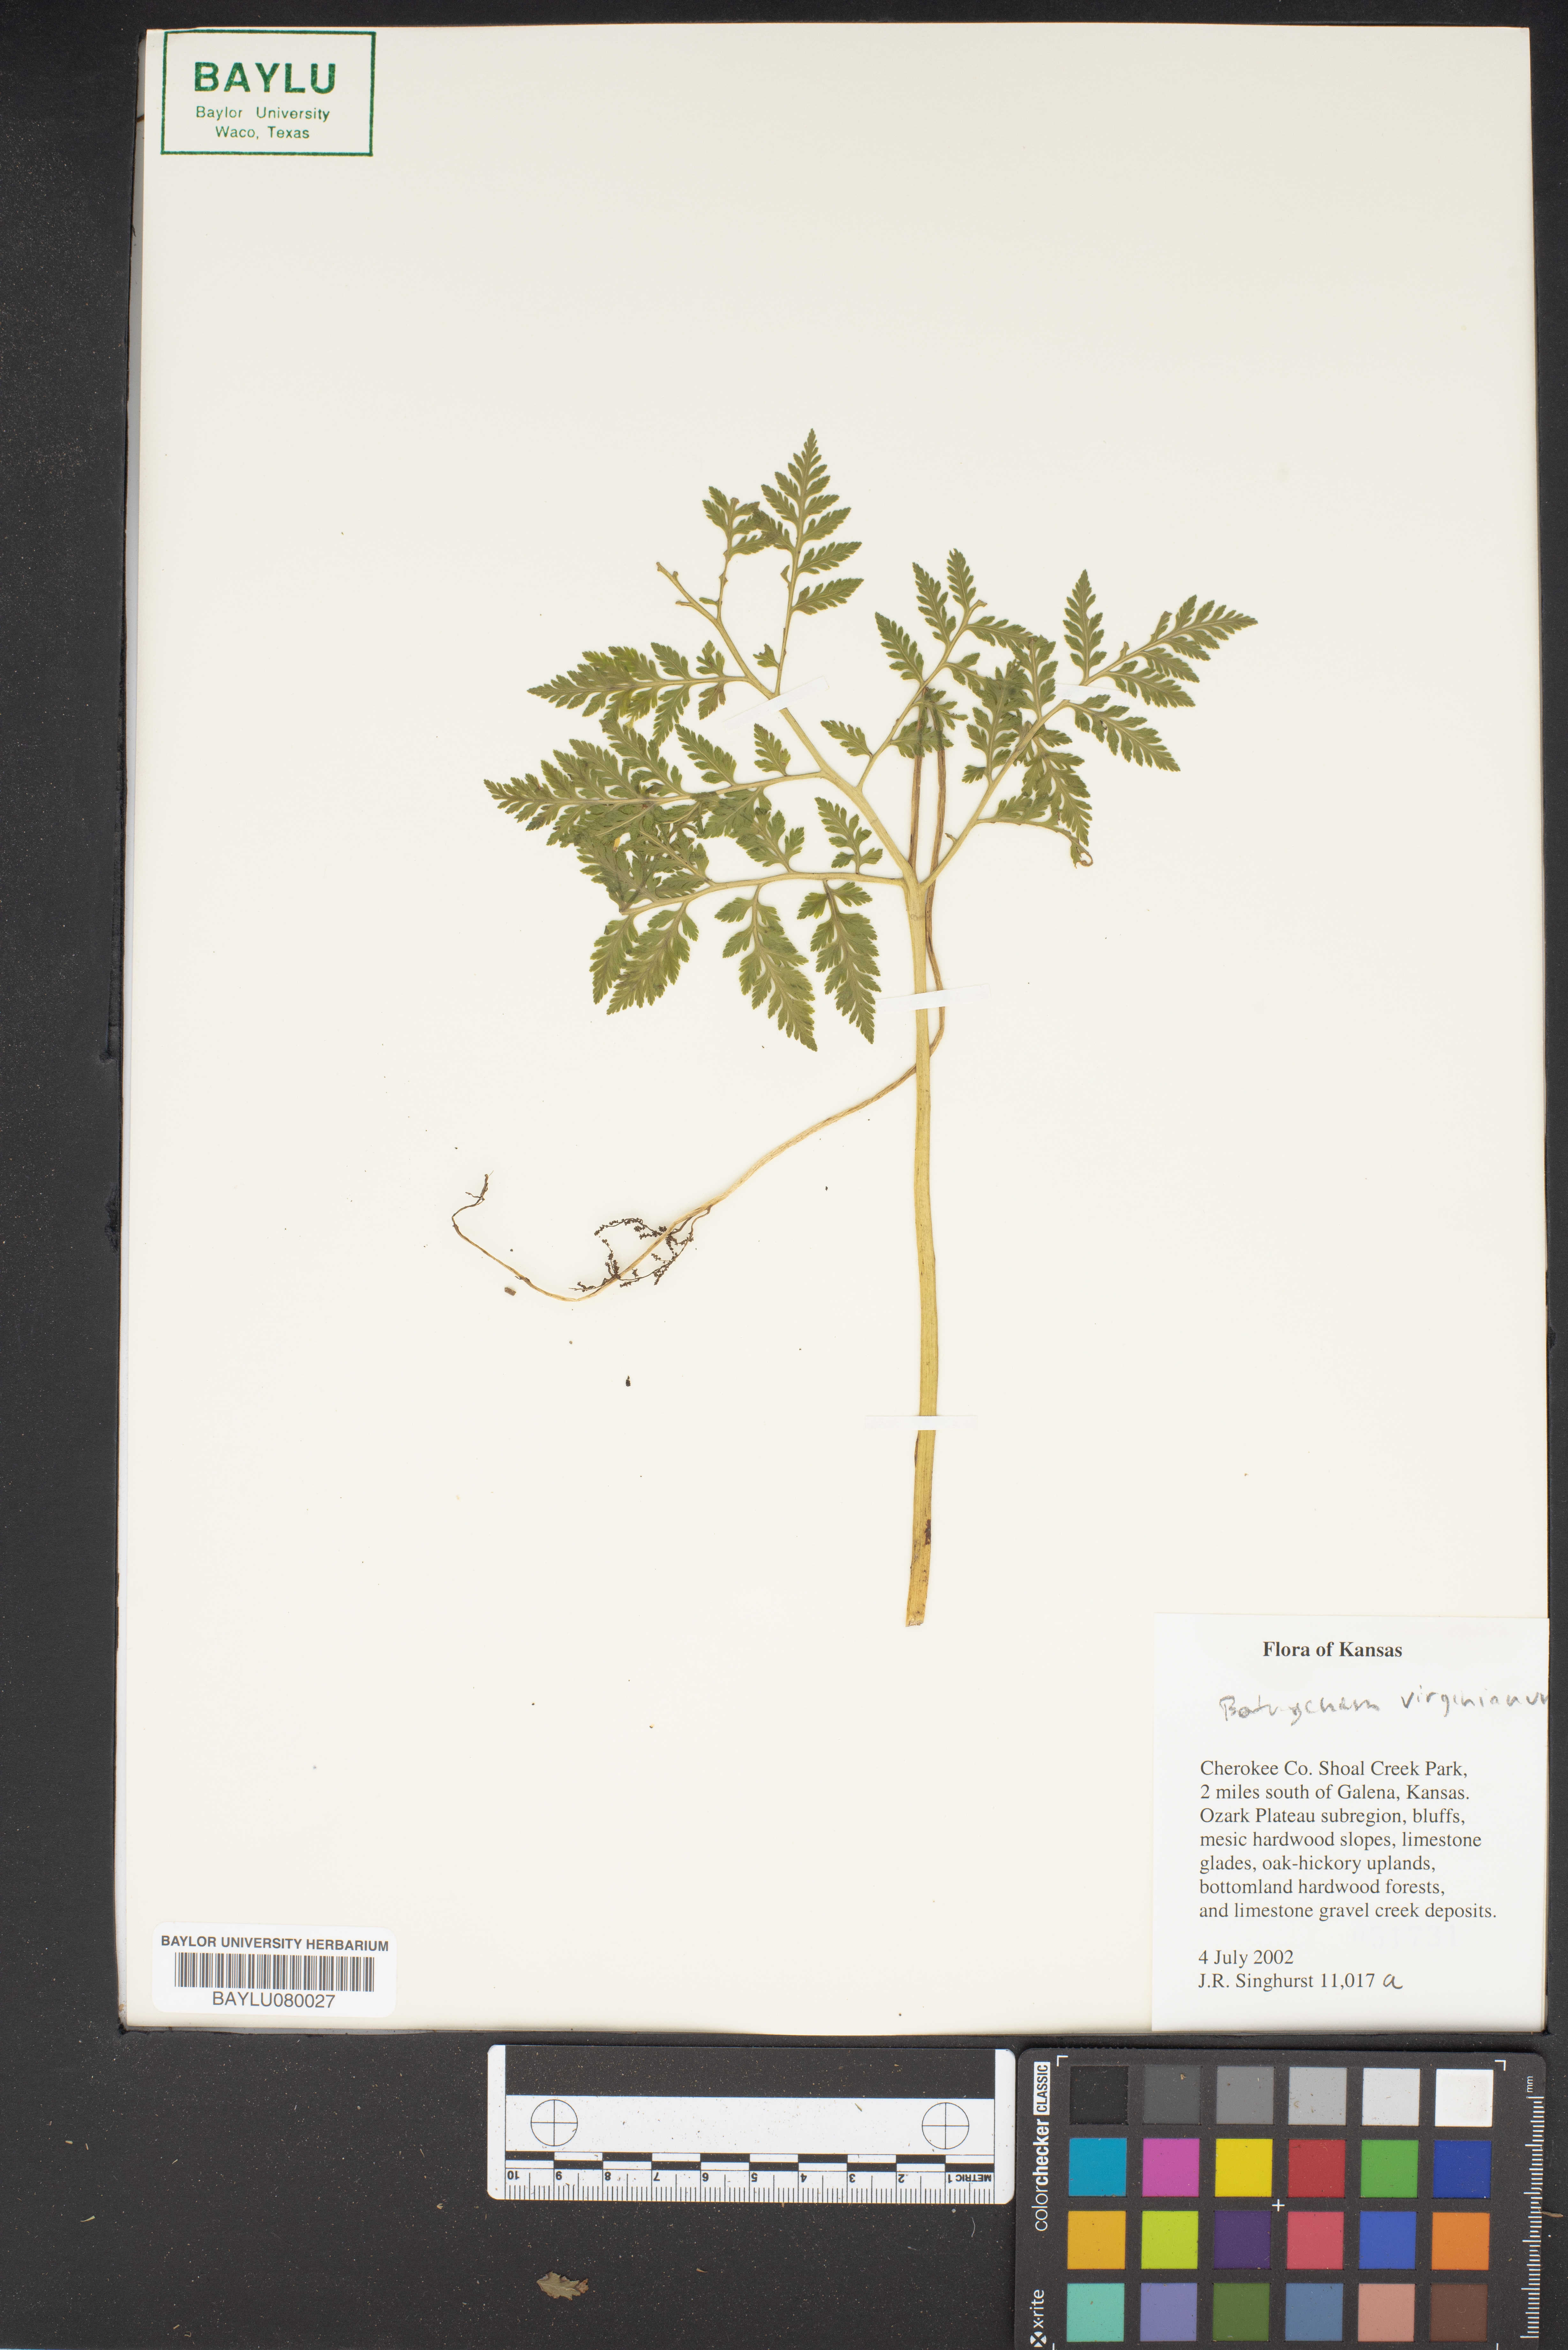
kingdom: Plantae
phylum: Tracheophyta
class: Polypodiopsida
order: Ophioglossales
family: Ophioglossaceae
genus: Botrypus
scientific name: Botrypus virginianus
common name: Common grapefern
